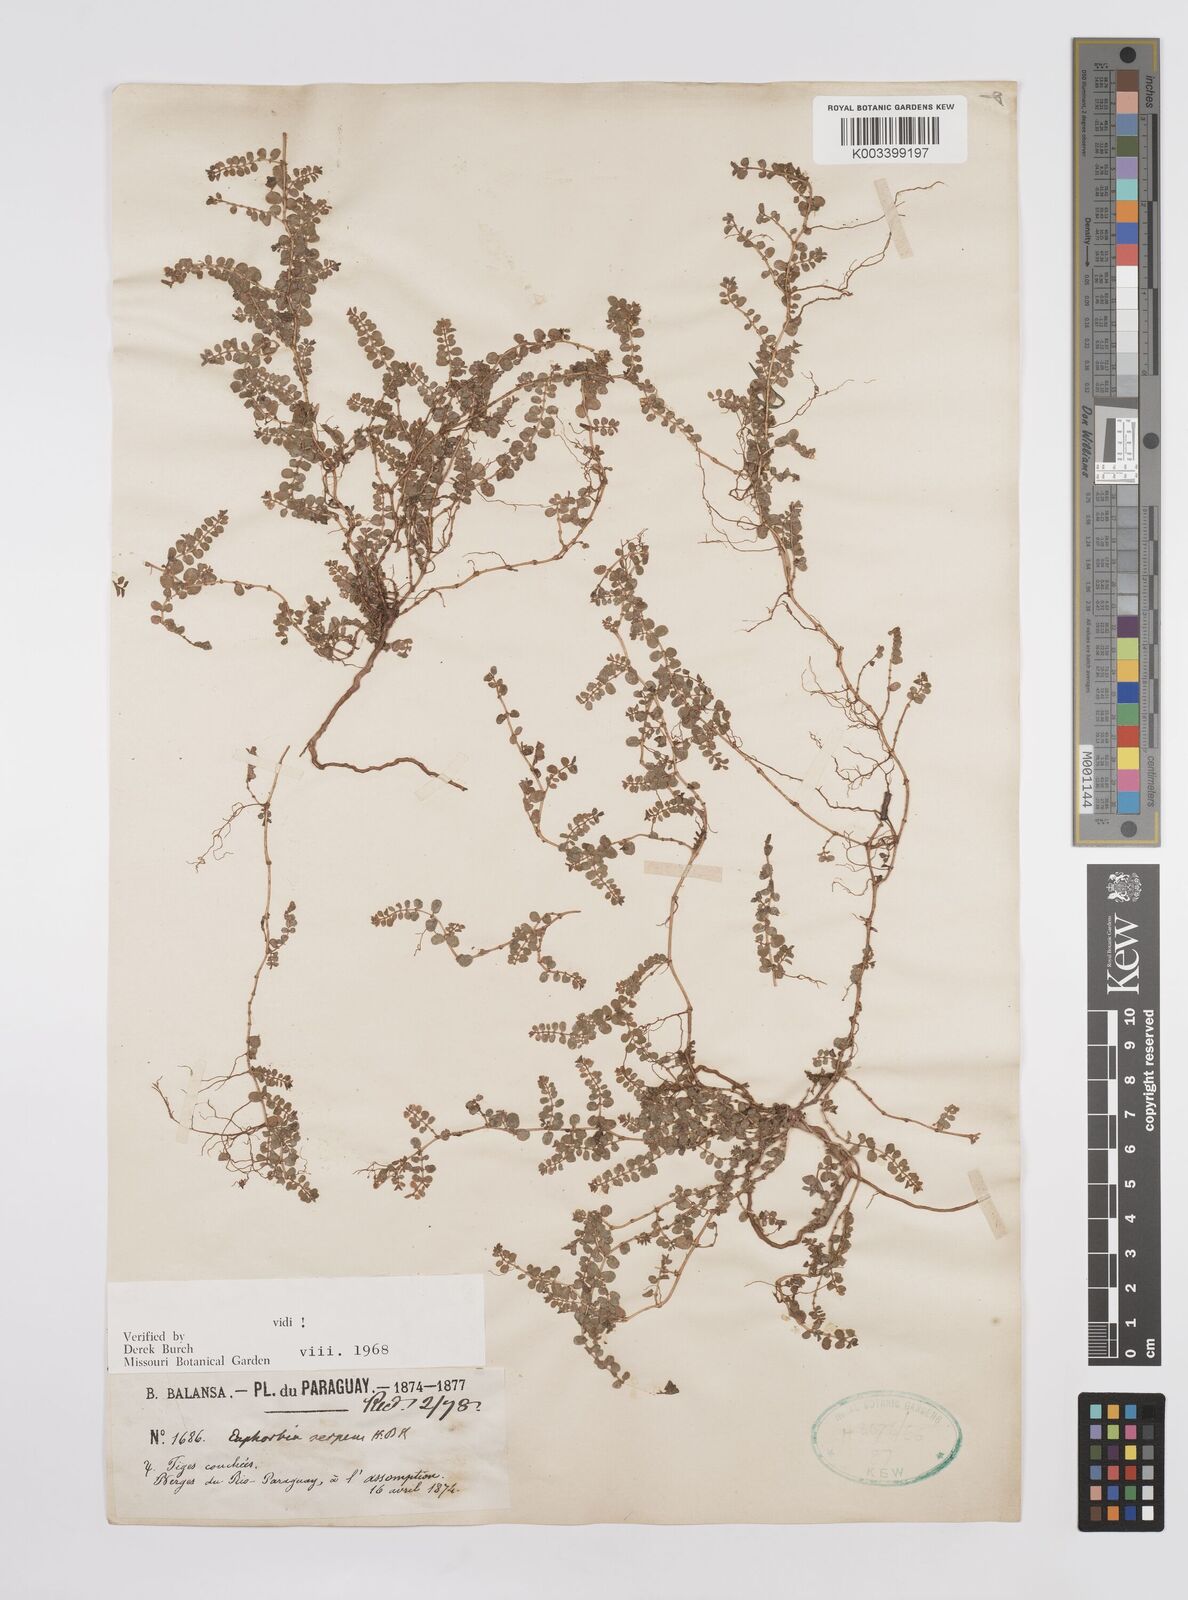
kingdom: Plantae
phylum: Tracheophyta
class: Magnoliopsida
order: Malpighiales
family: Euphorbiaceae
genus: Euphorbia
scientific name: Euphorbia serpens
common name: Matted sandmat
